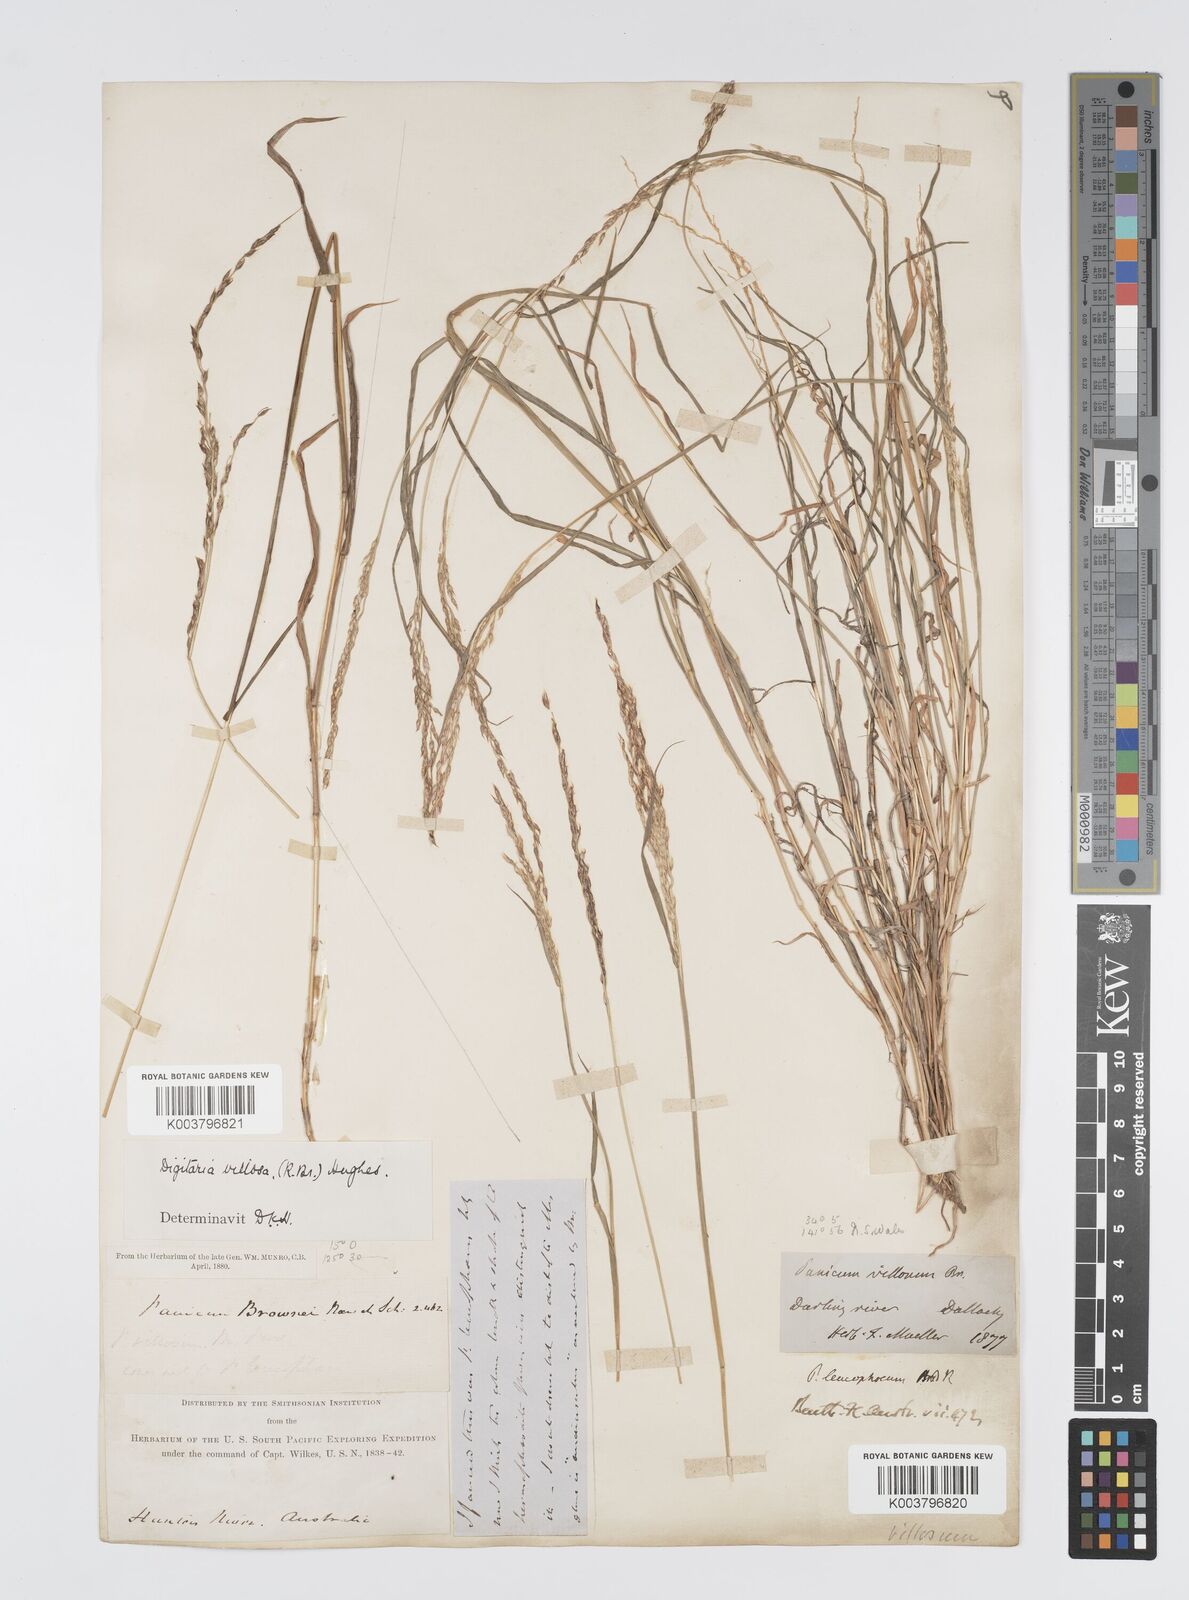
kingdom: Plantae
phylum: Tracheophyta
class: Liliopsida
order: Poales
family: Poaceae
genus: Digitaria
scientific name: Digitaria brownii
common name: Cotton grass
